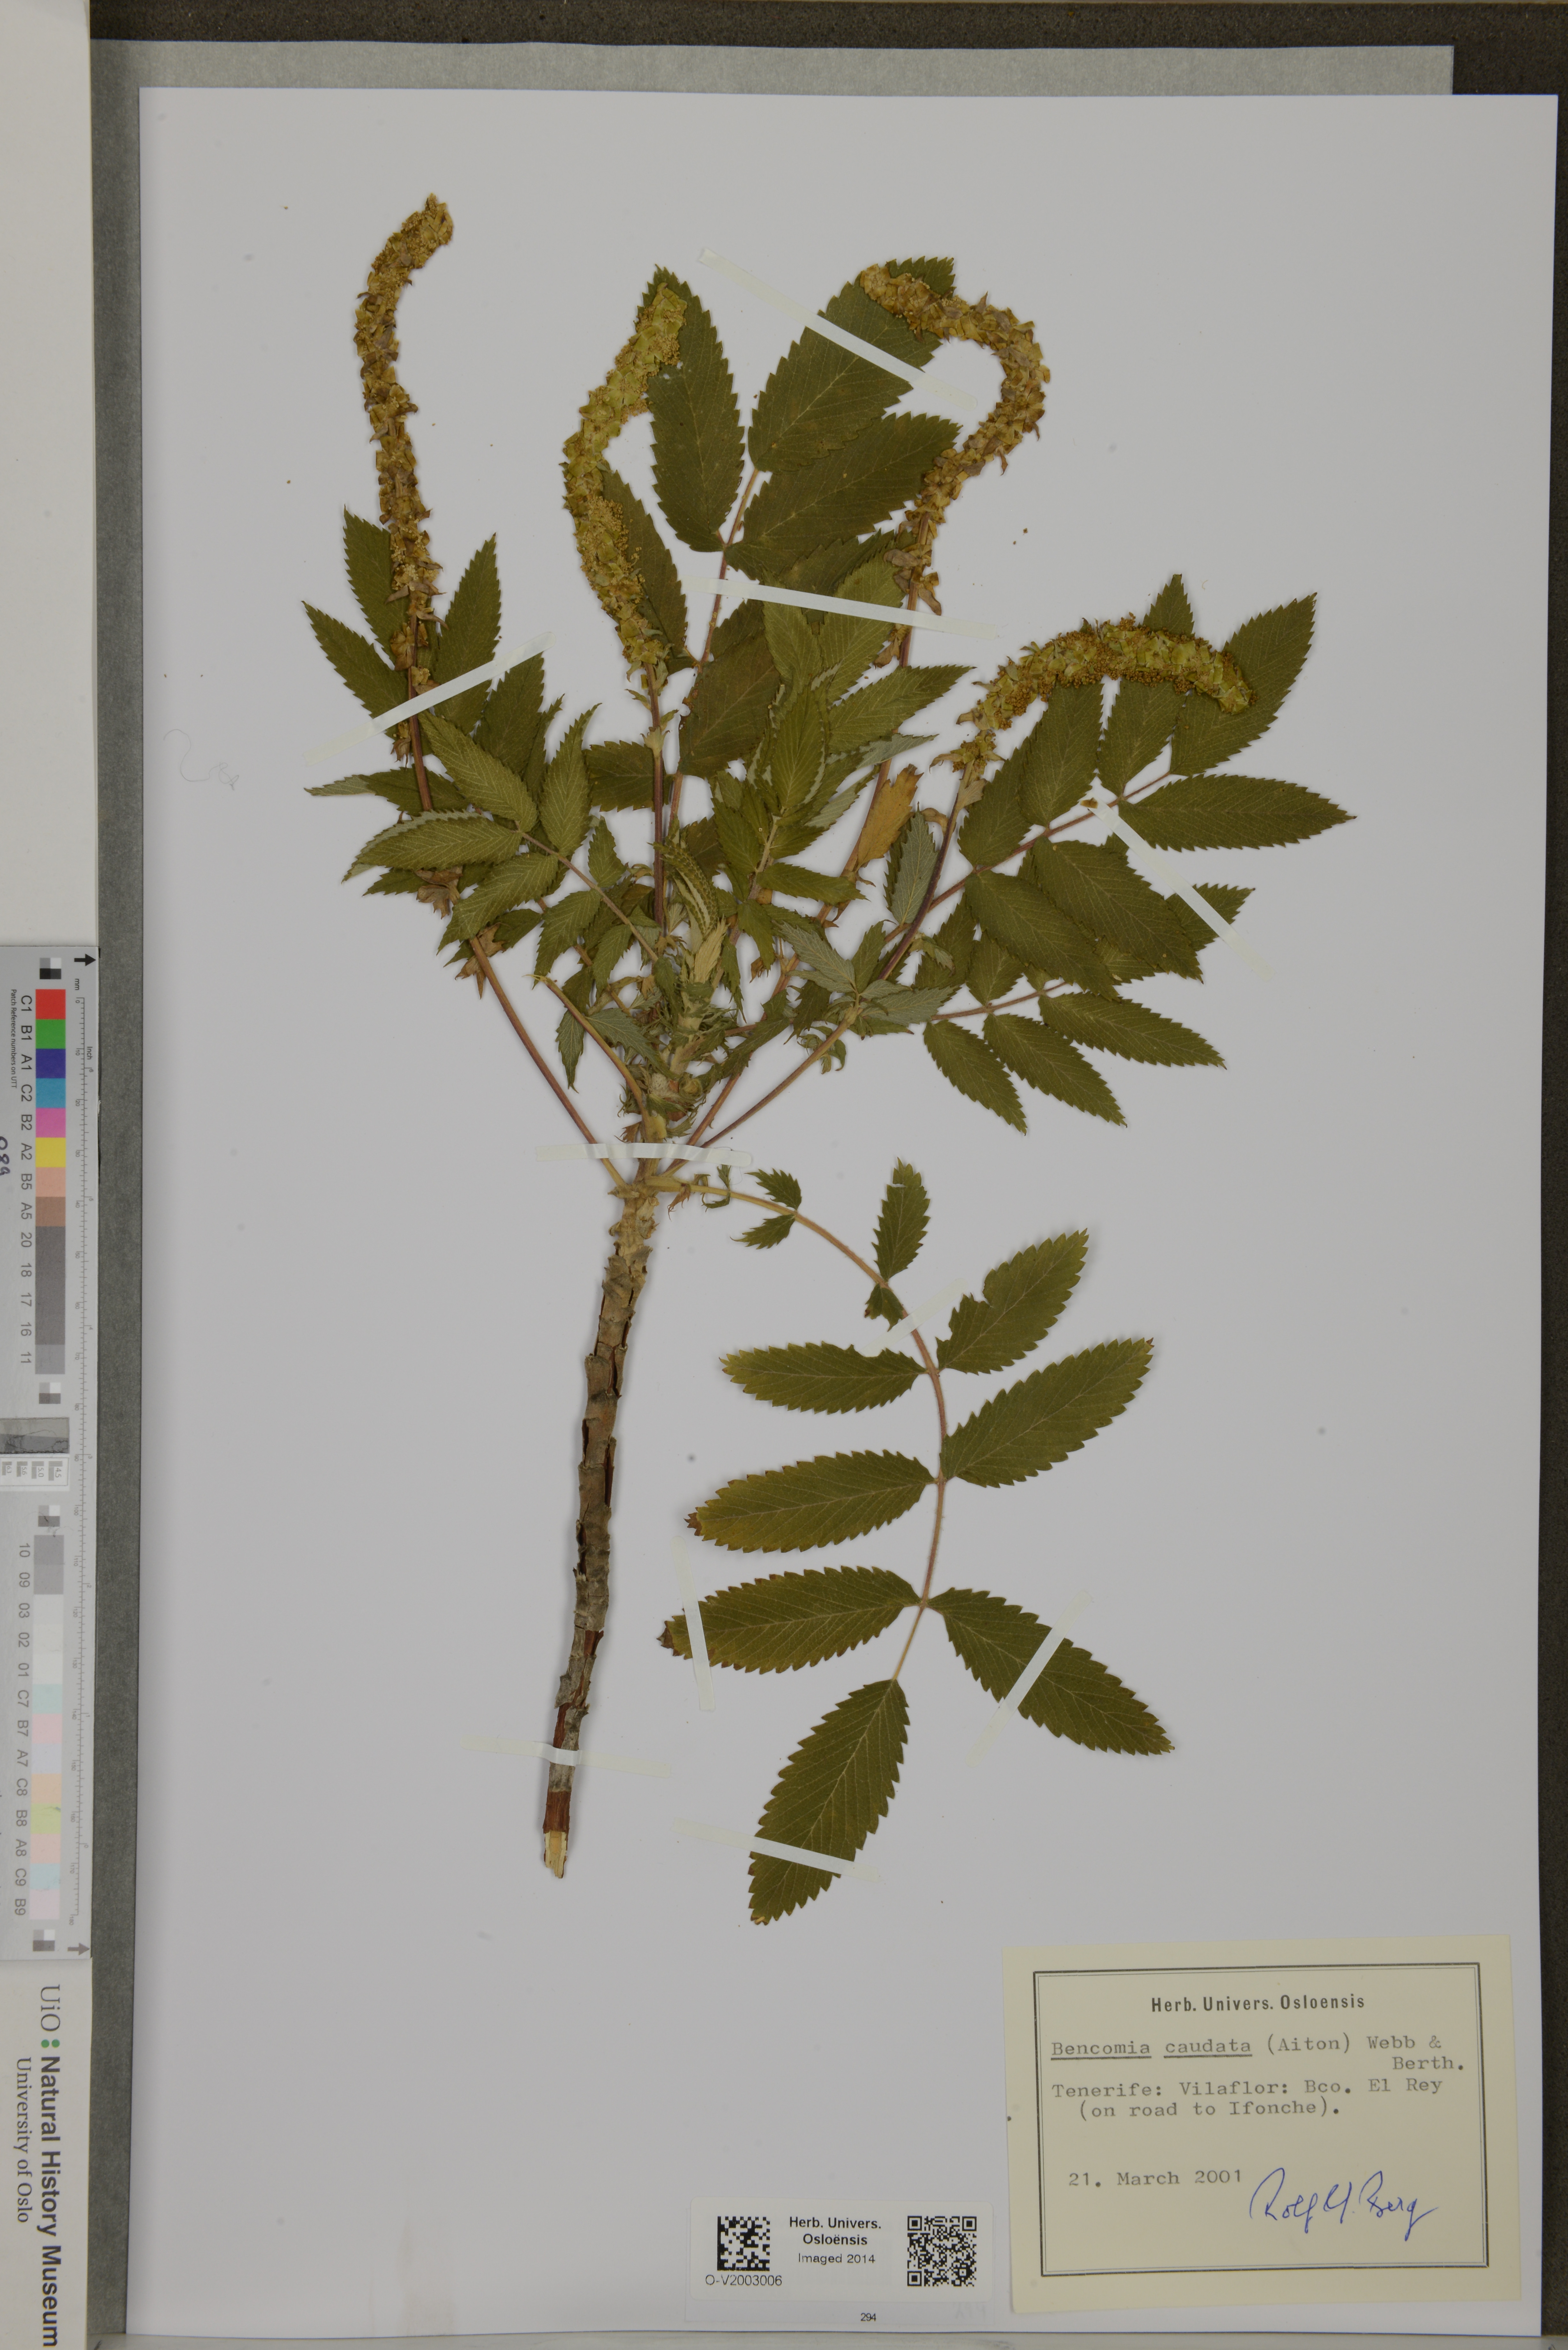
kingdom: Plantae
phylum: Tracheophyta
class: Magnoliopsida
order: Rosales
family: Rosaceae
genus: Bencomia
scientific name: Bencomia caudata
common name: Bencomia
